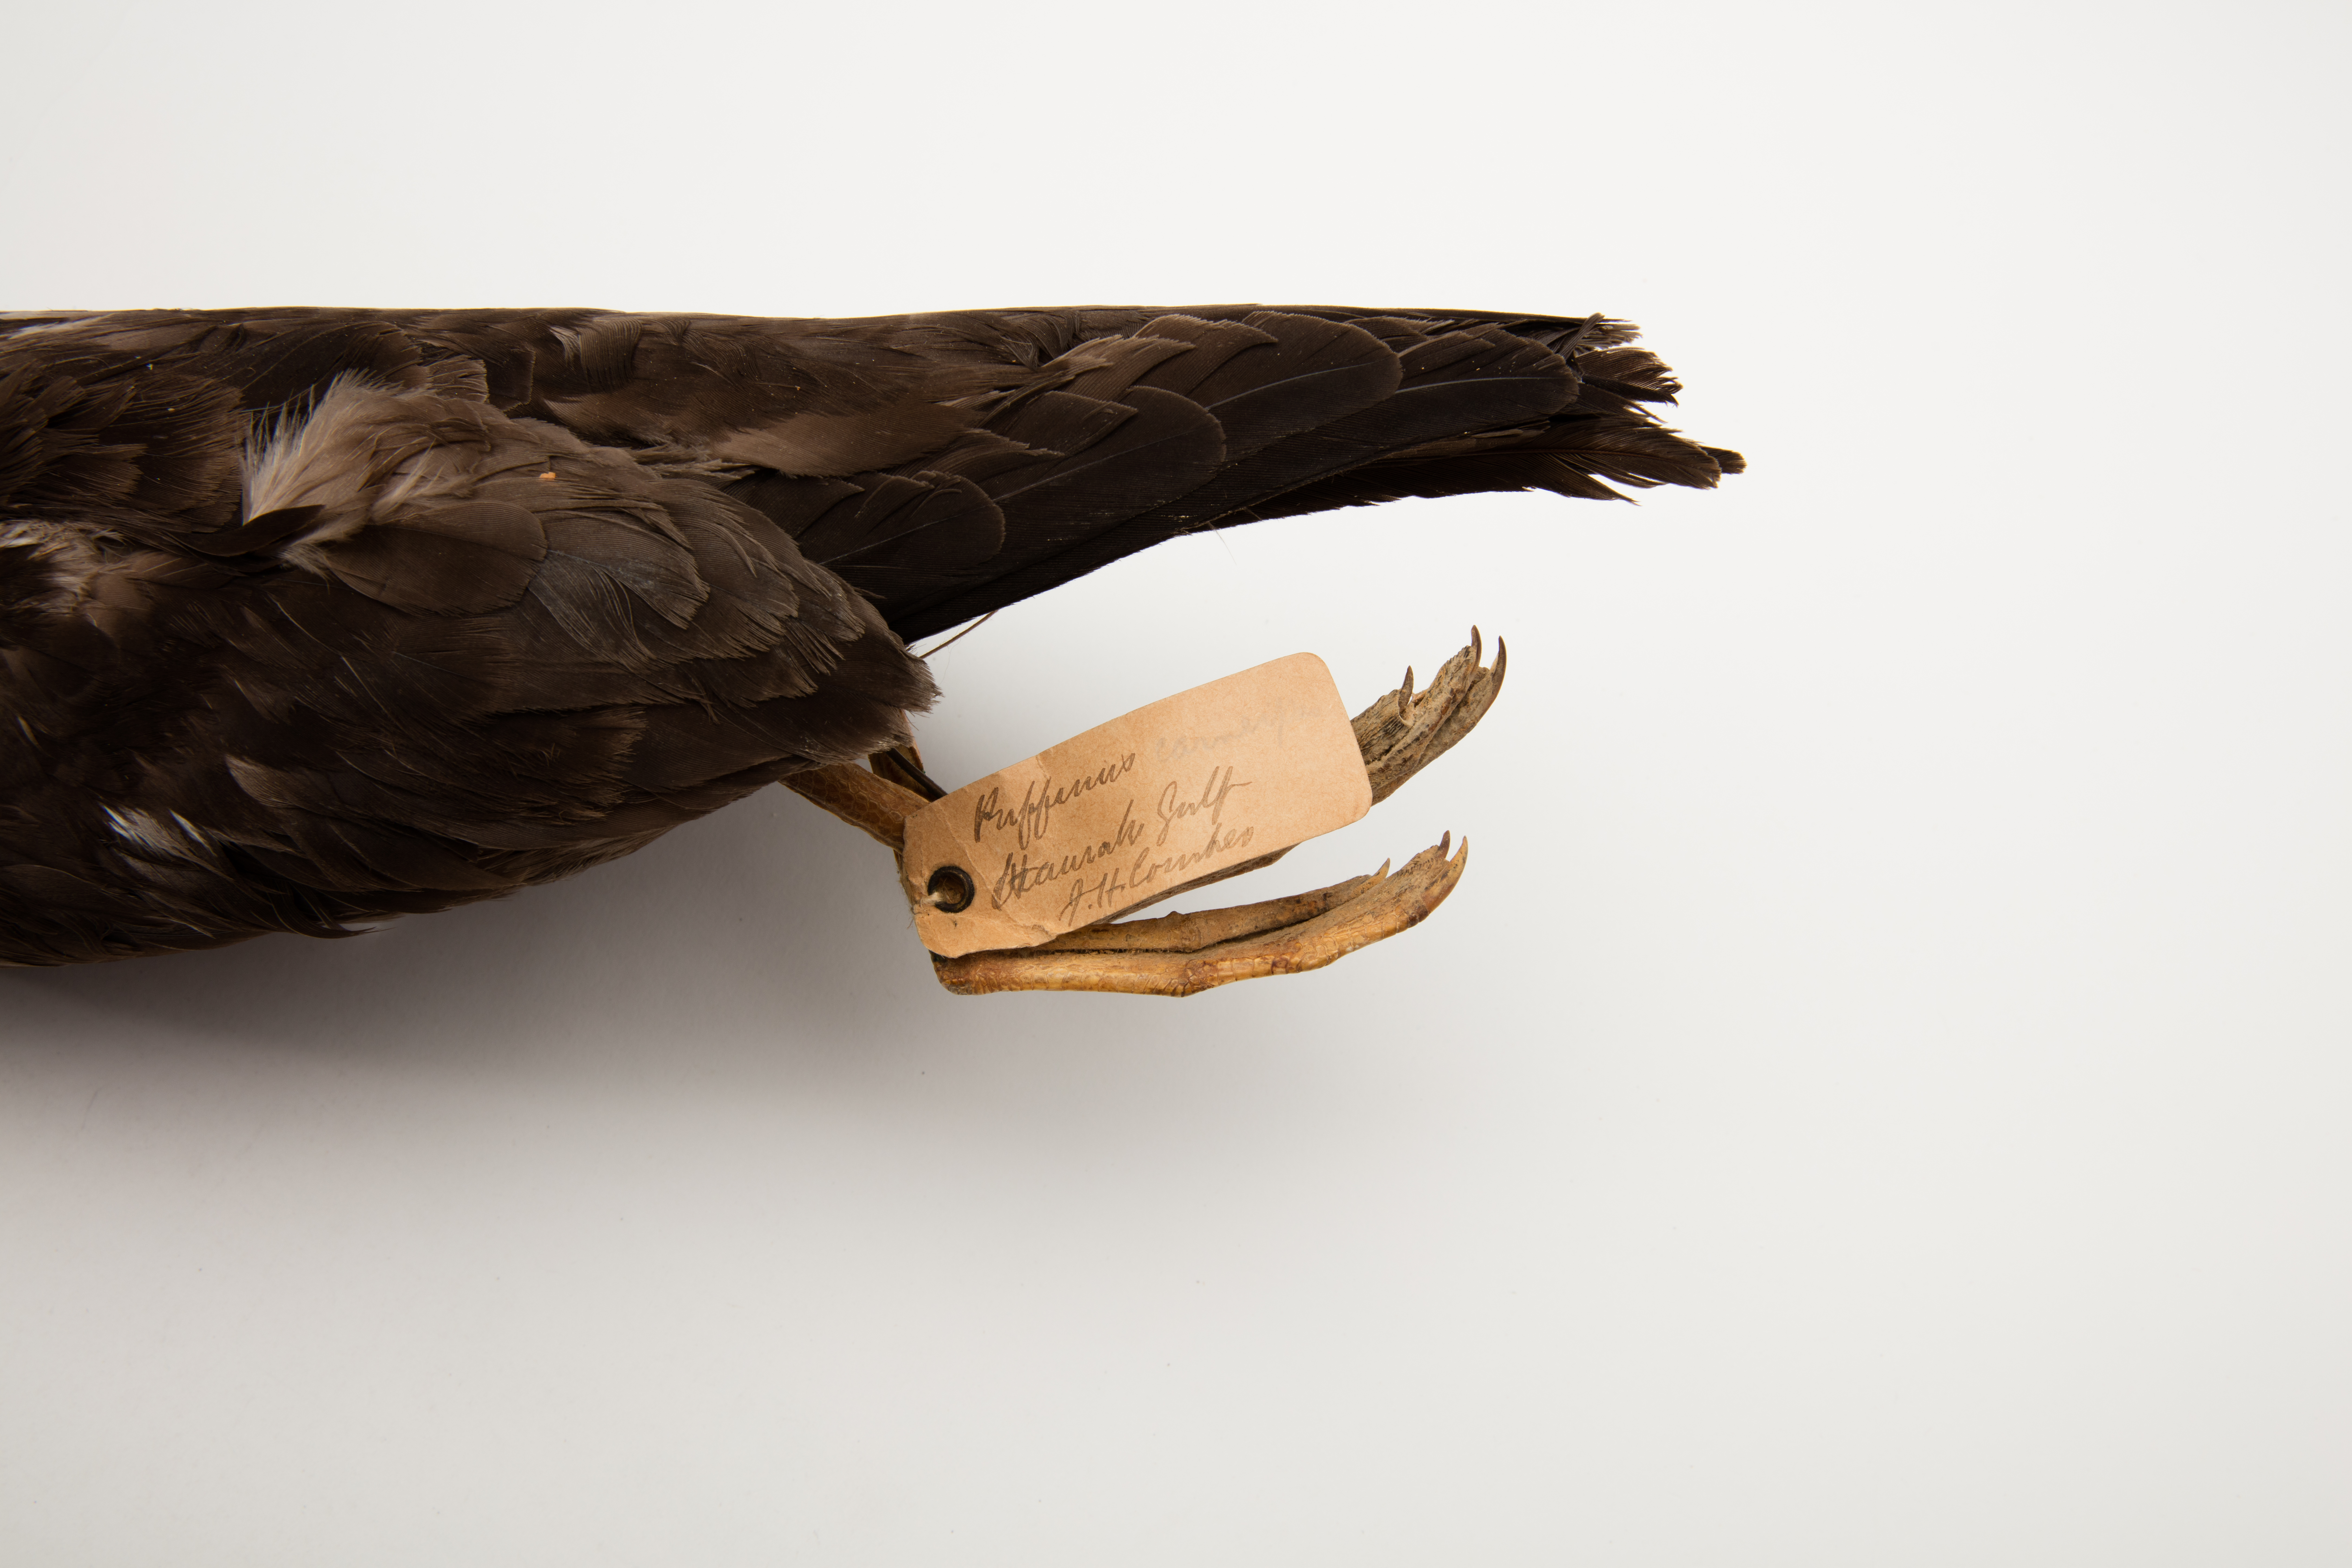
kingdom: Animalia
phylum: Chordata
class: Aves
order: Procellariiformes
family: Procellariidae
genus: Puffinus
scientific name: Puffinus carneipes
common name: Flesh-footed shearwater
